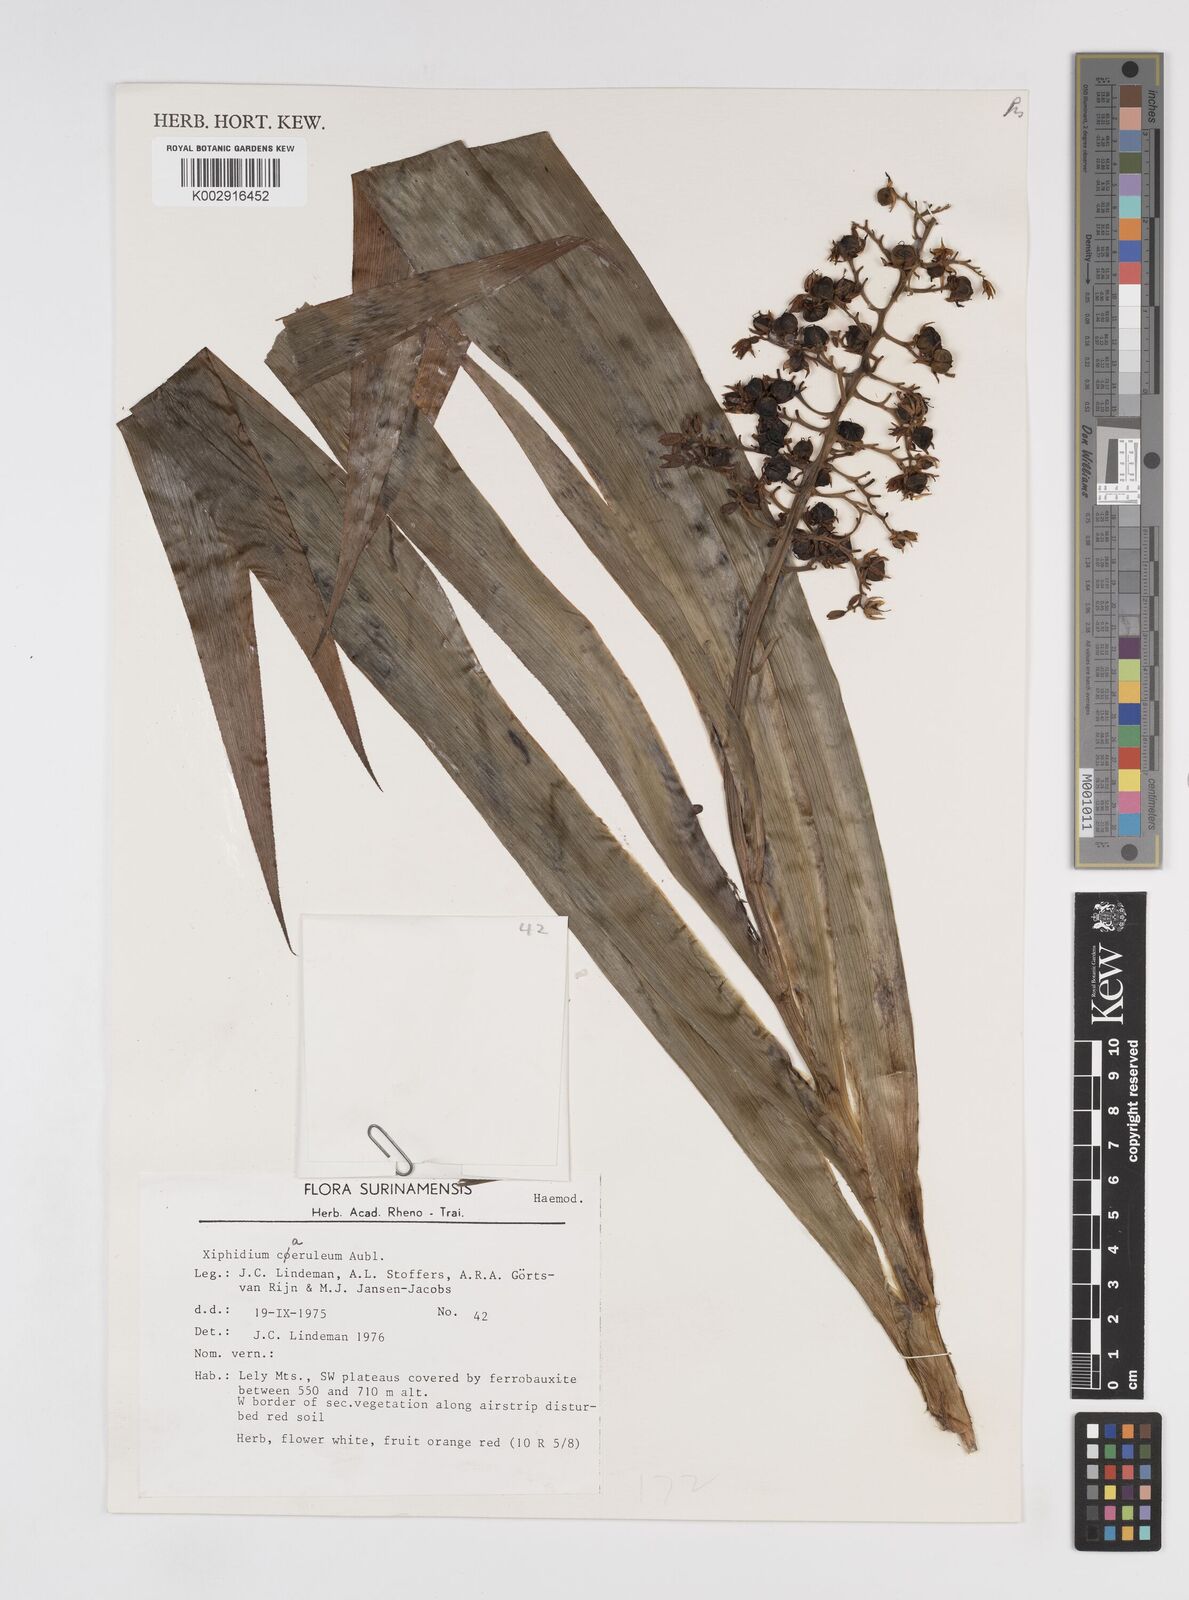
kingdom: Plantae
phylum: Tracheophyta
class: Liliopsida
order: Commelinales
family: Haemodoraceae
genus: Xiphidium
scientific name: Xiphidium caeruleum
